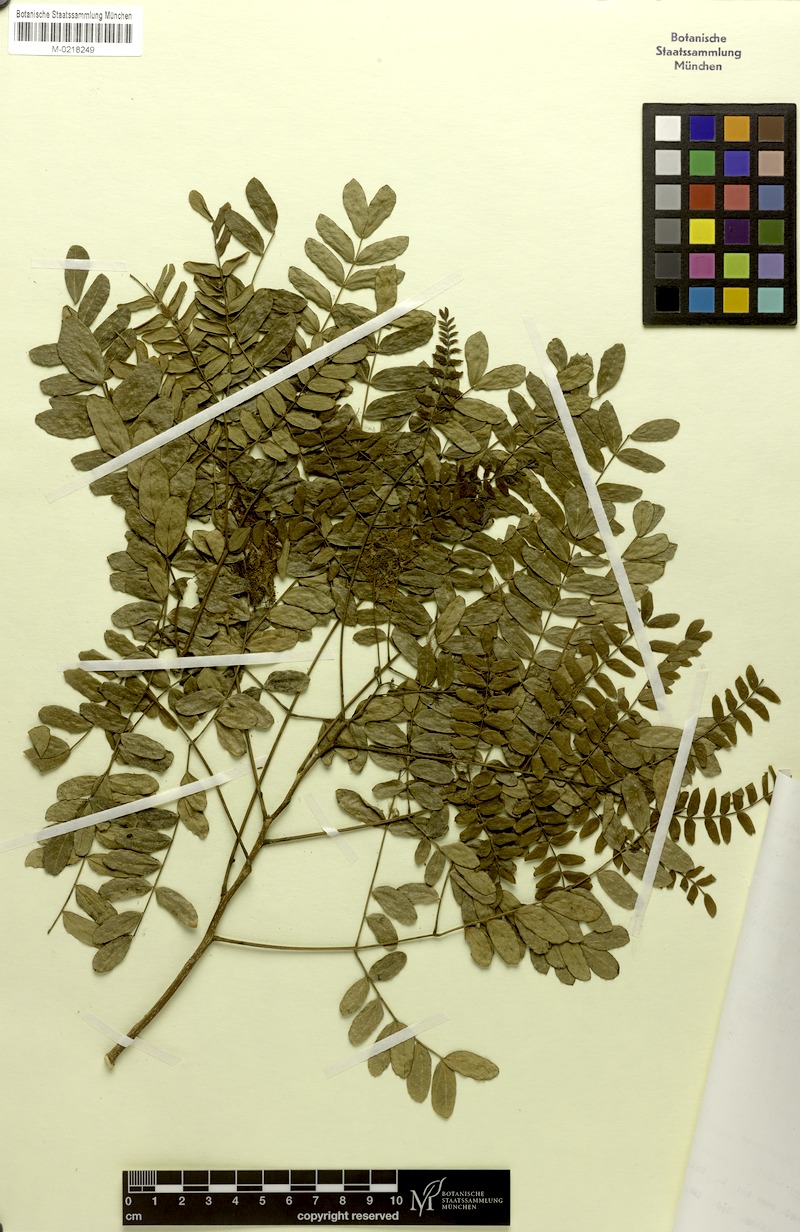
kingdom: Plantae
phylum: Tracheophyta
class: Magnoliopsida
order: Fabales
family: Fabaceae
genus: Albizia
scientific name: Albizia carrii
